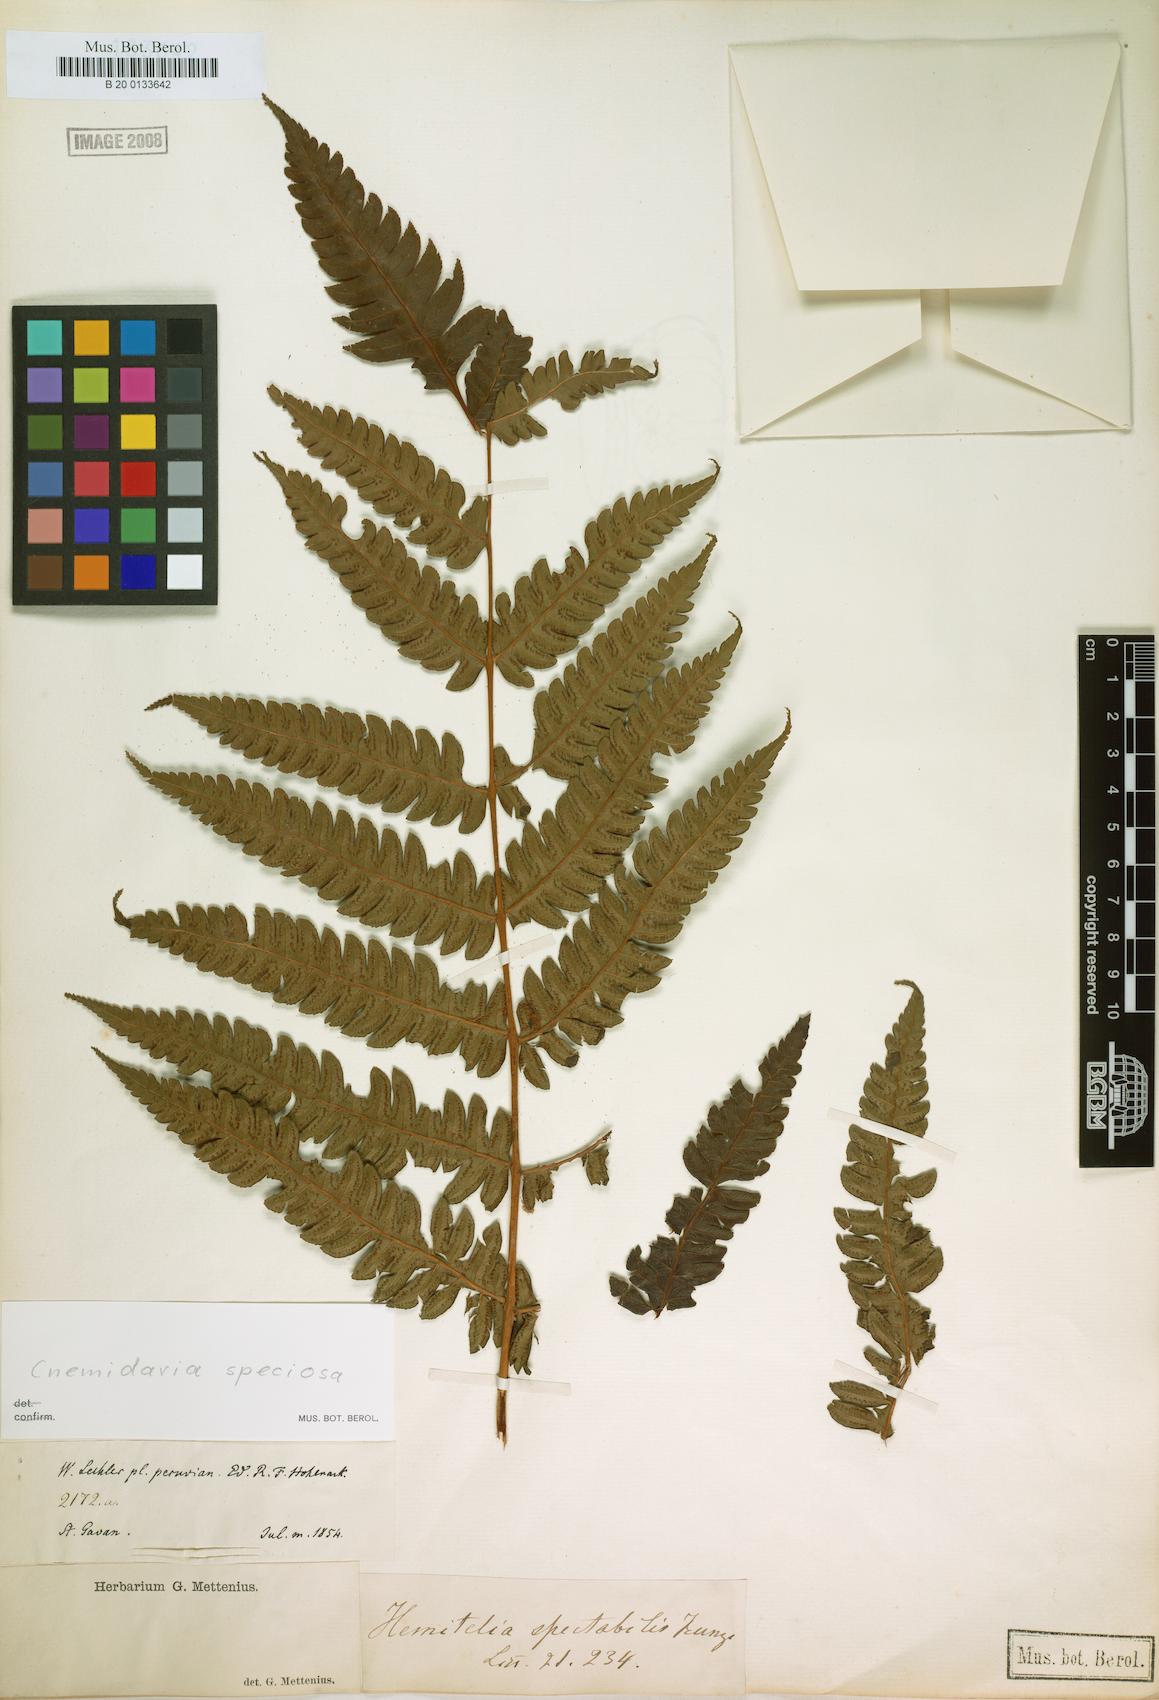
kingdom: Plantae
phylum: Tracheophyta
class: Polypodiopsida
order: Cyatheales
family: Cyatheaceae
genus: Cyathea
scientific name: Cyathea subincisa
